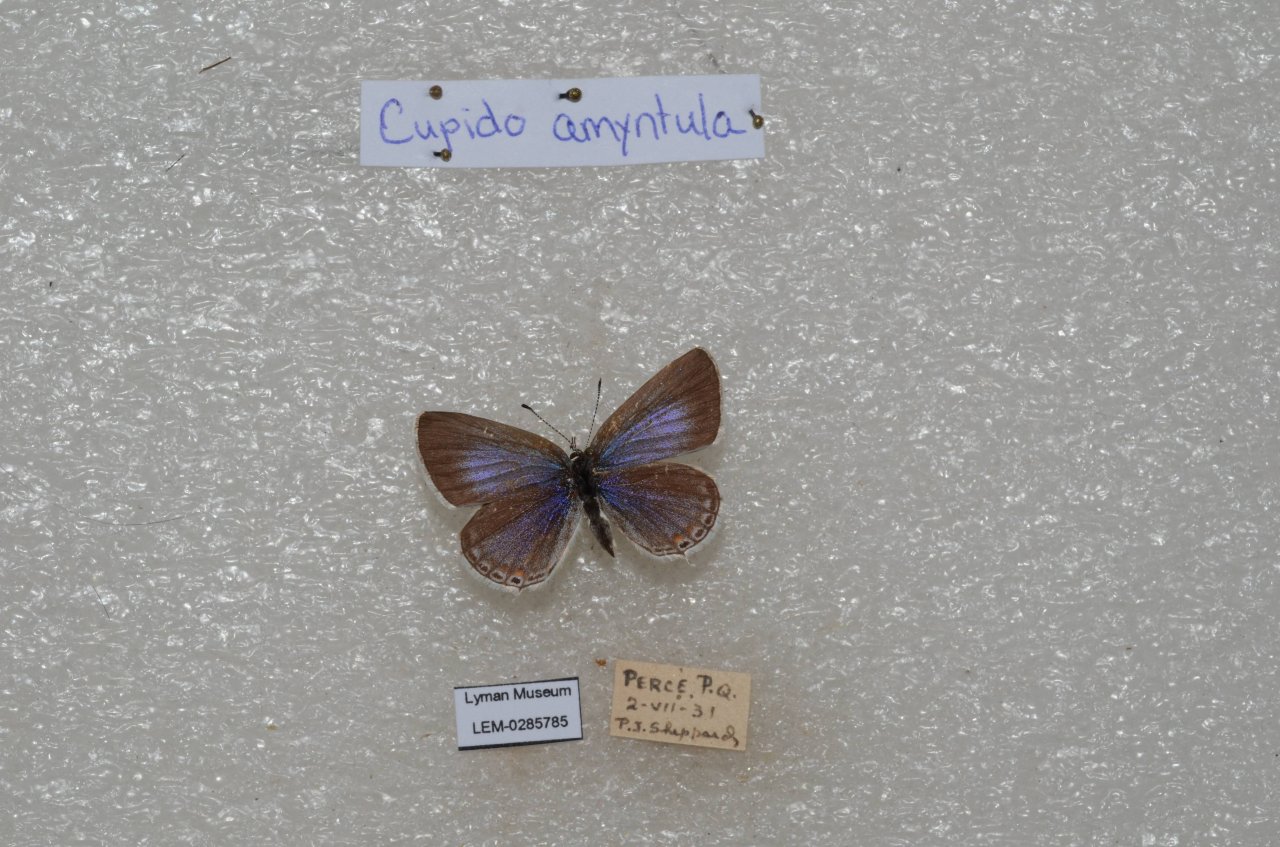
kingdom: Animalia
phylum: Arthropoda
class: Insecta
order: Lepidoptera
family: Lycaenidae
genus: Elkalyce
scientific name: Elkalyce amyntula
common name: Western Tailed-Blue
